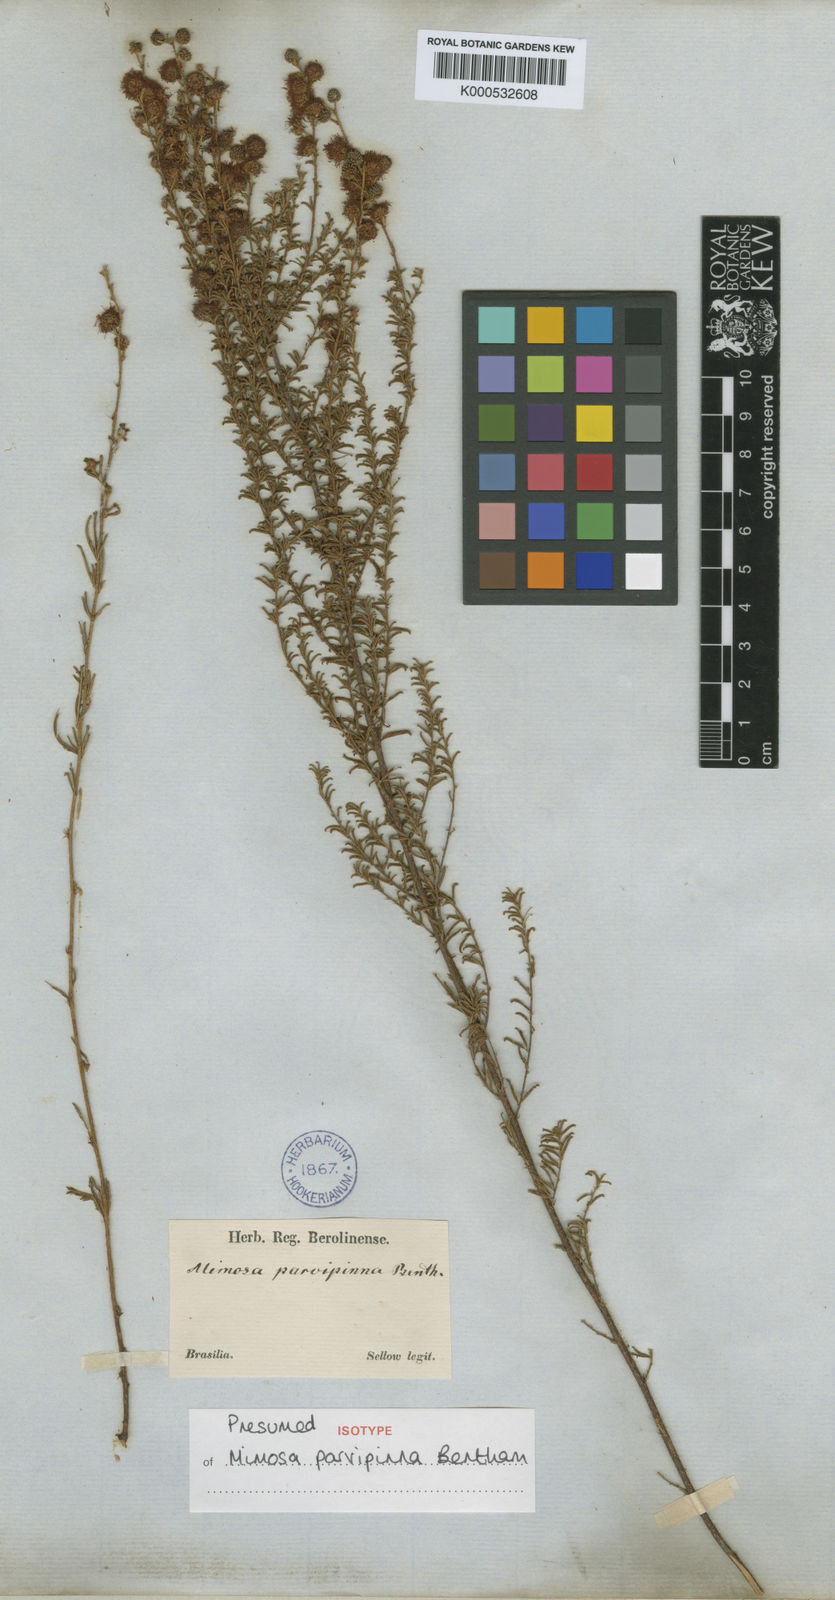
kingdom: Plantae
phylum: Tracheophyta
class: Magnoliopsida
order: Fabales
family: Fabaceae
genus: Mimosa
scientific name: Mimosa parvipinna
